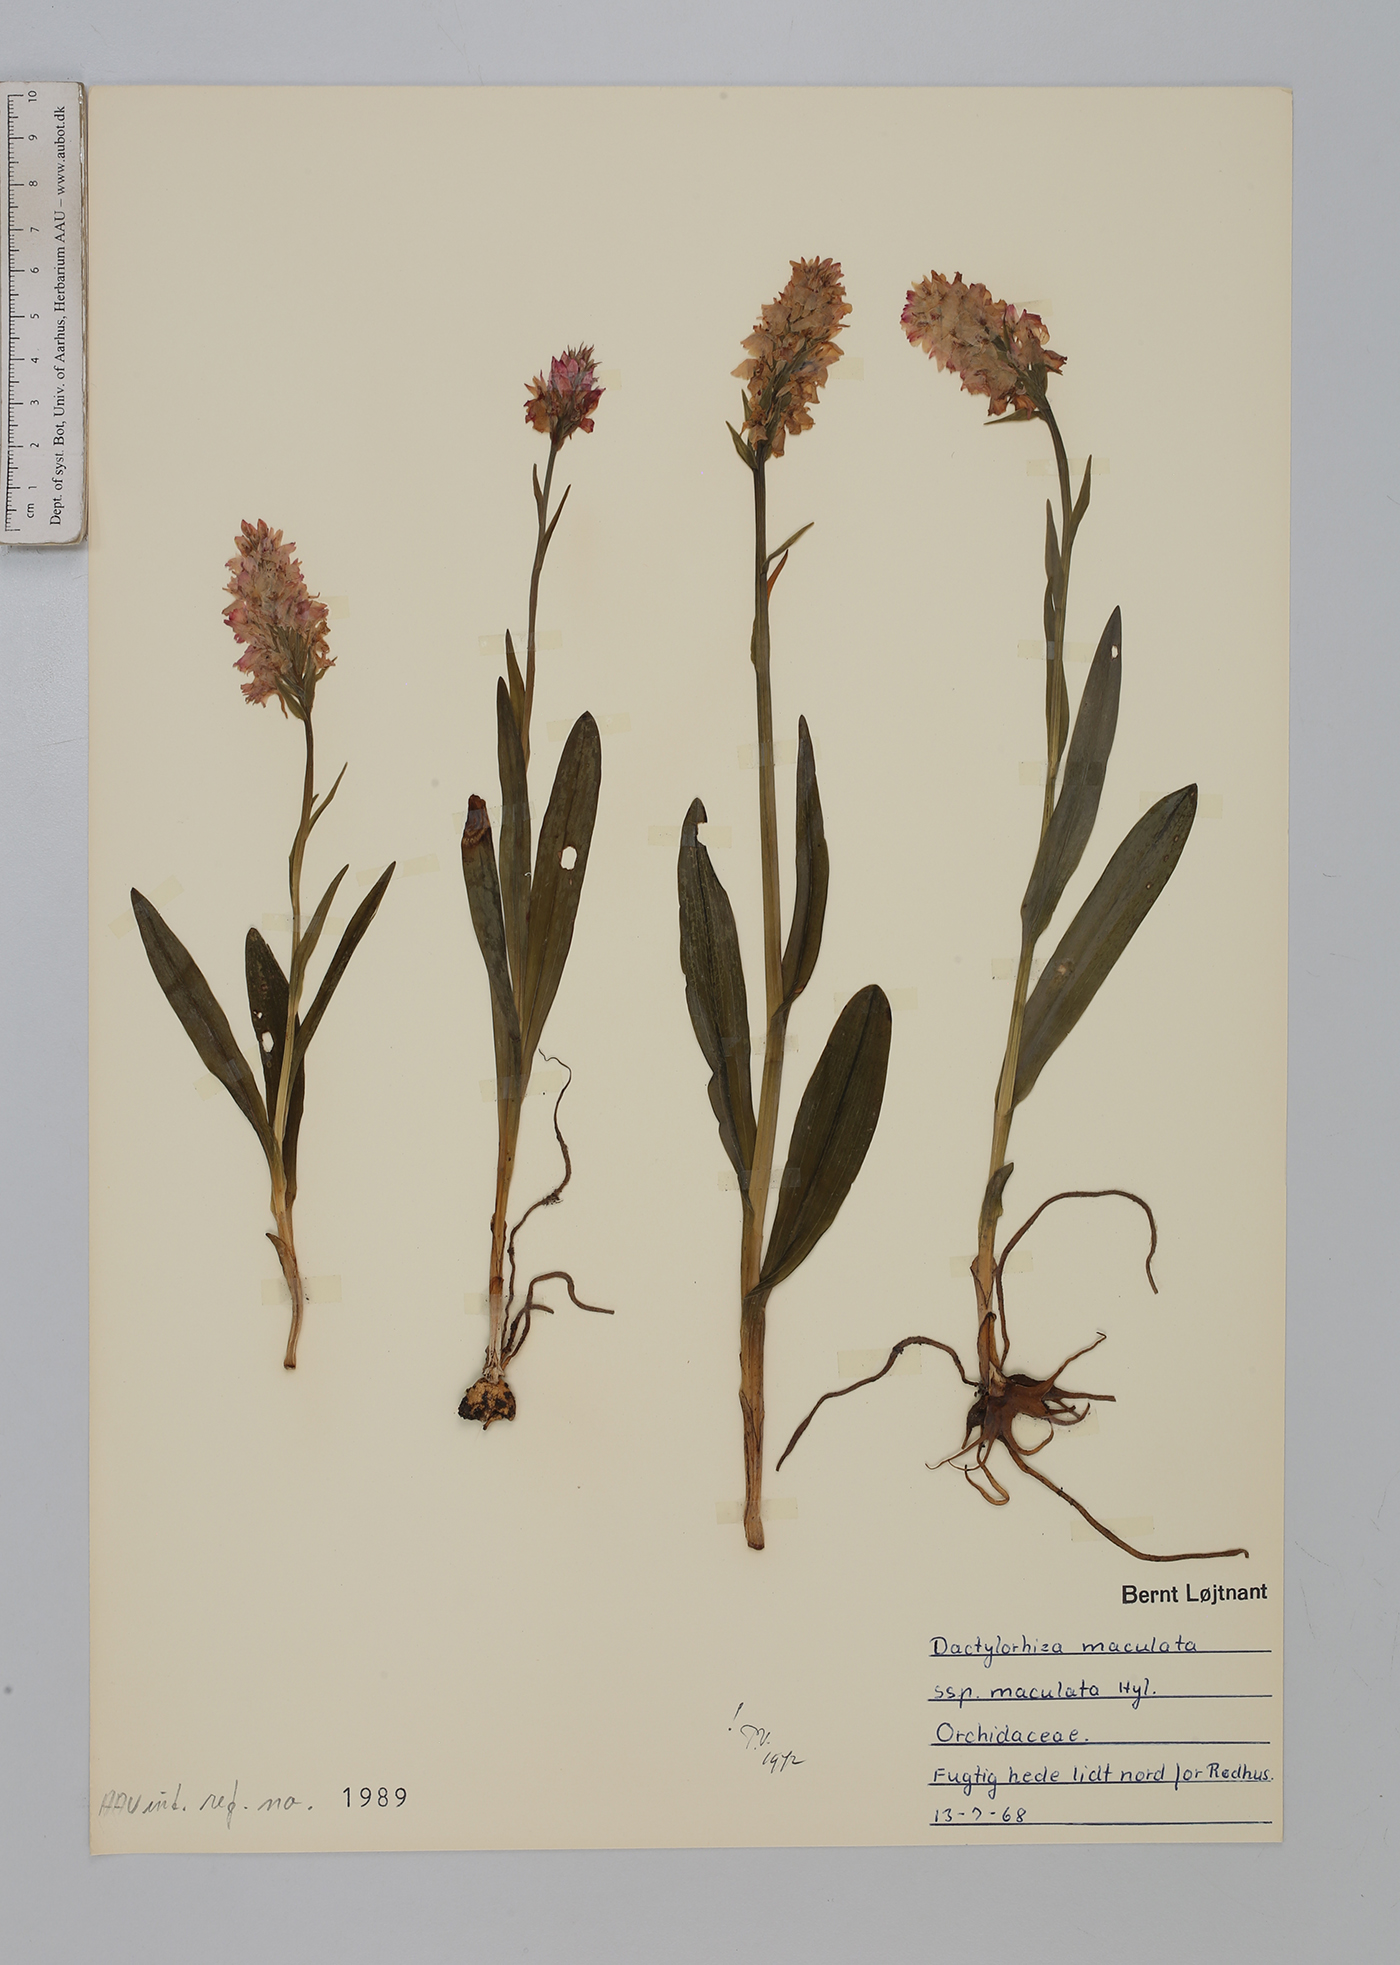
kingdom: Plantae
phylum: Tracheophyta
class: Liliopsida
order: Asparagales
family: Orchidaceae
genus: Dactylorhiza
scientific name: Dactylorhiza maculata
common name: Heath spotted-orchid
